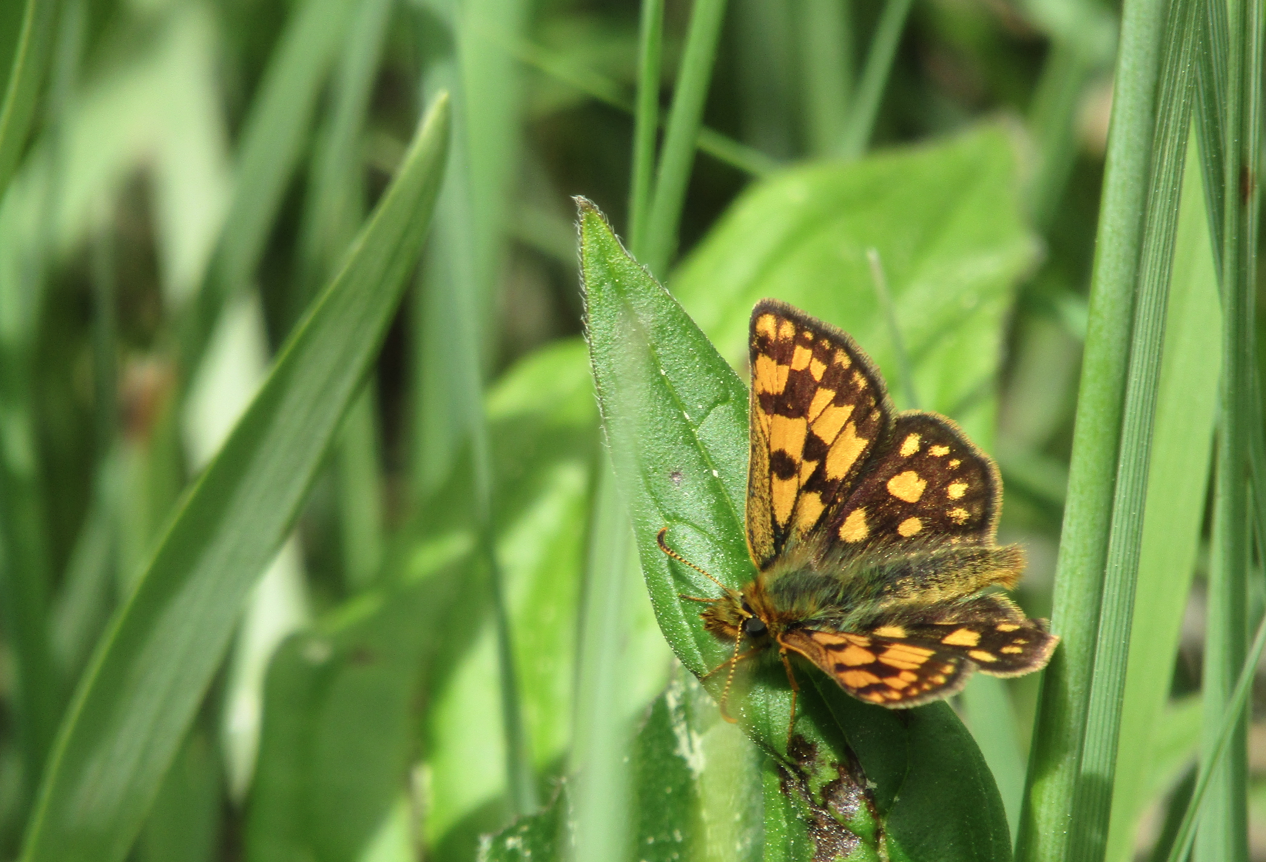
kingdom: Animalia
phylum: Arthropoda
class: Insecta
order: Lepidoptera
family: Hesperiidae
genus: Carterocephalus
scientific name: Carterocephalus palaemon
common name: Chequered Skipper
